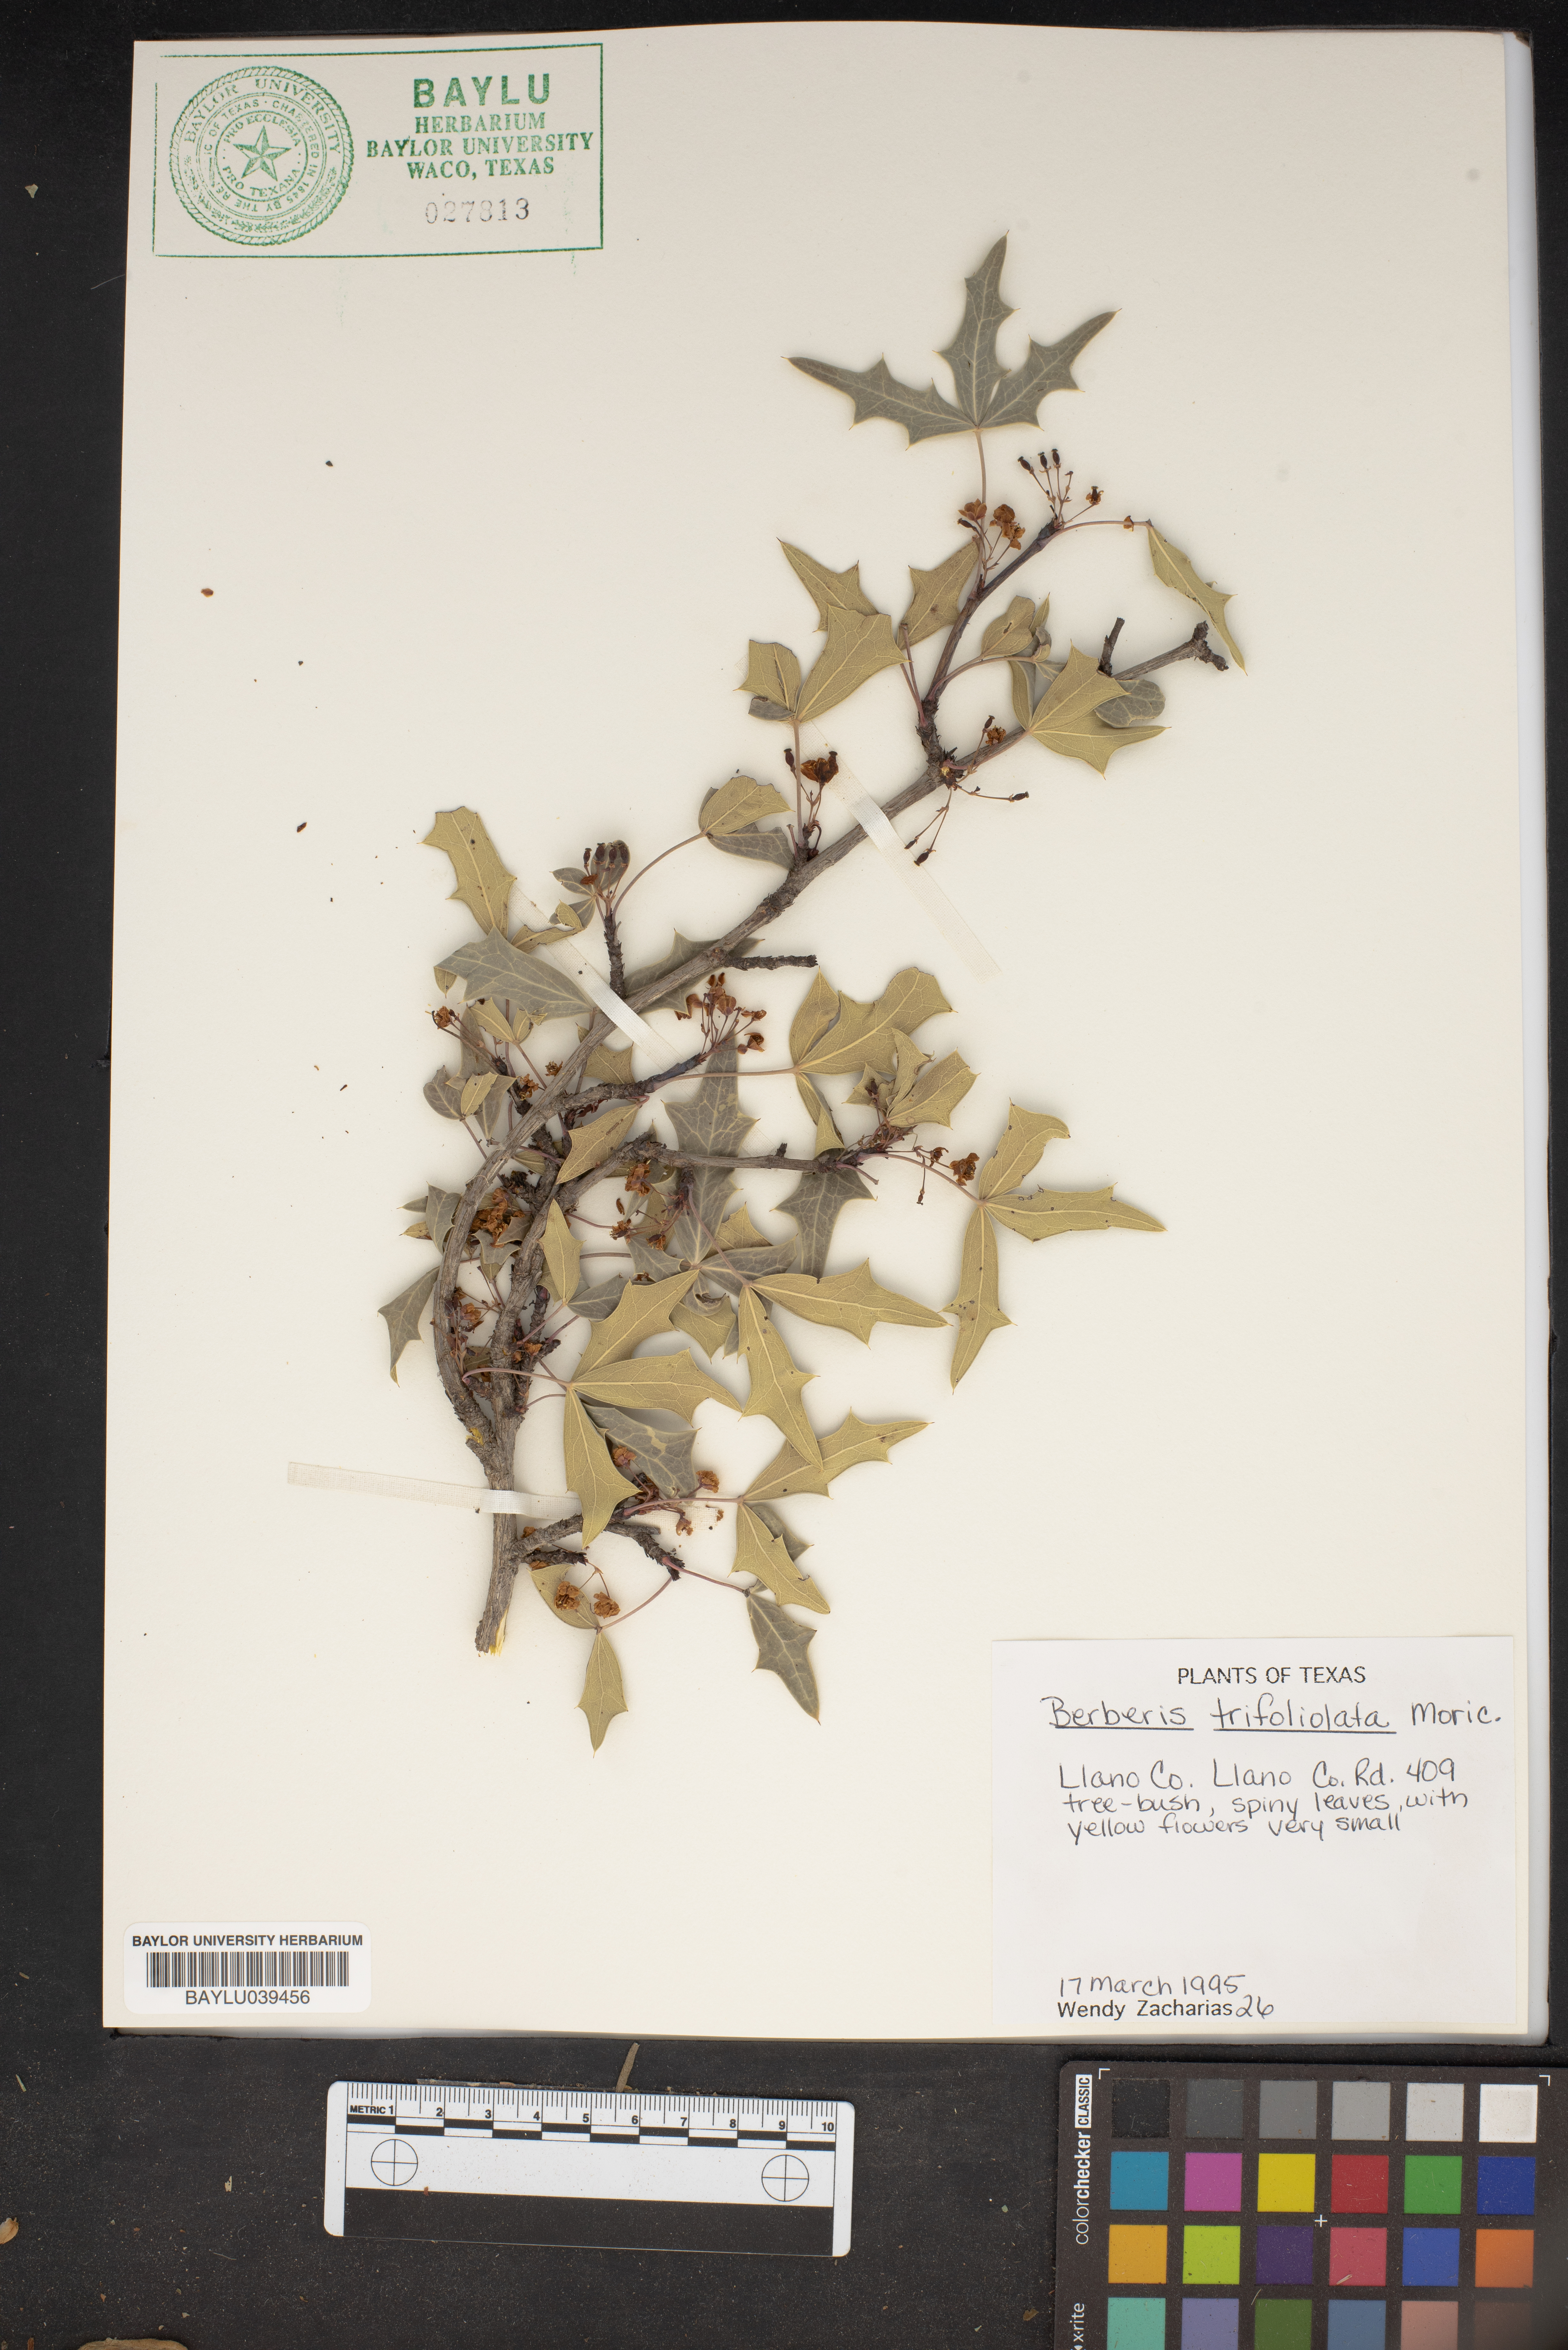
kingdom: Plantae
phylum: Tracheophyta
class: Magnoliopsida
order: Ranunculales
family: Berberidaceae
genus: Alloberberis
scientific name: Alloberberis fremontii
